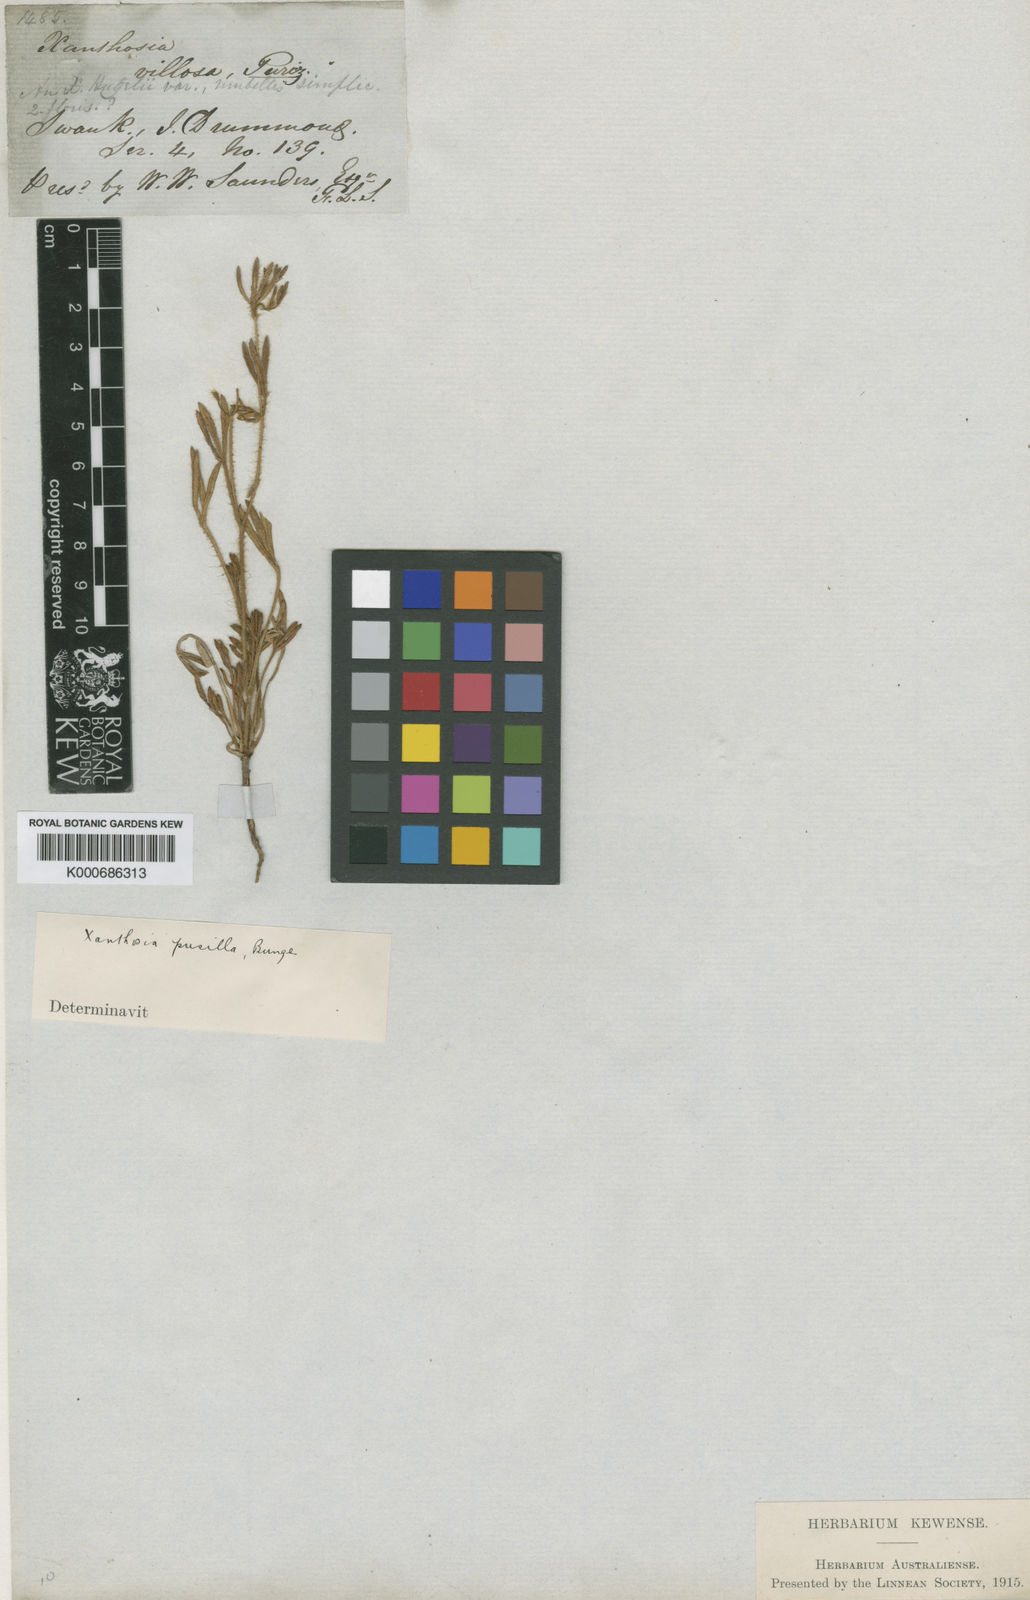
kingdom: Plantae
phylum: Tracheophyta
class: Magnoliopsida
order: Apiales
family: Apiaceae
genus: Xanthosia
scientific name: Xanthosia huegelii
